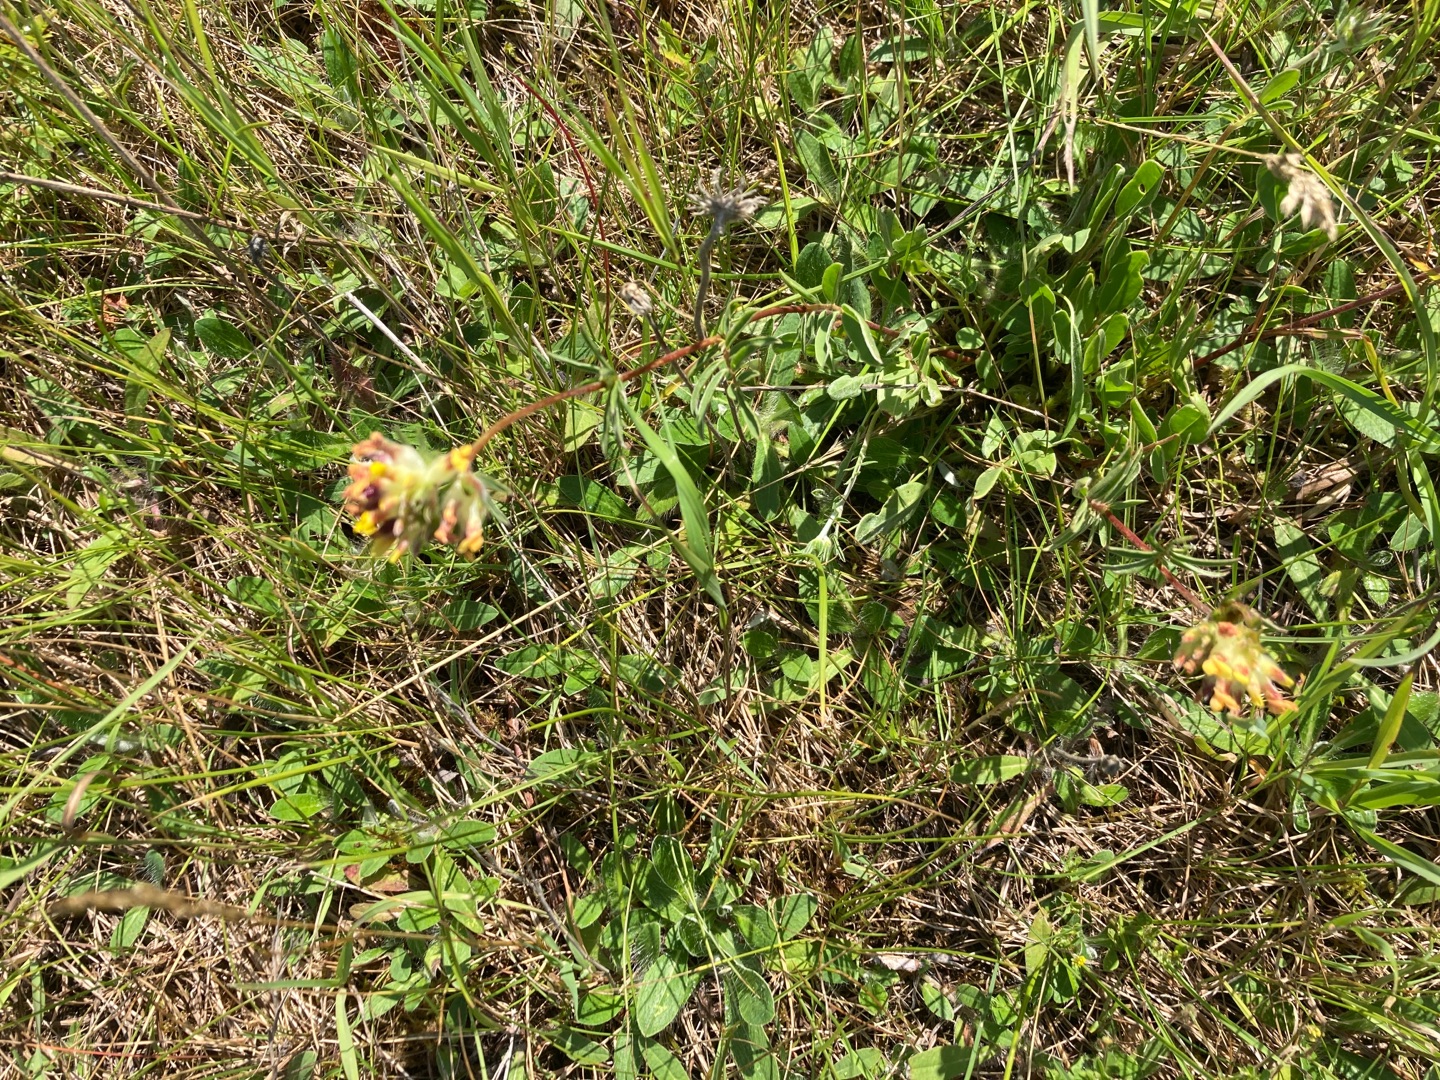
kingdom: Plantae
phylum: Tracheophyta
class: Magnoliopsida
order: Fabales
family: Fabaceae
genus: Anthyllis
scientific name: Anthyllis vulneraria
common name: Rundbælg
